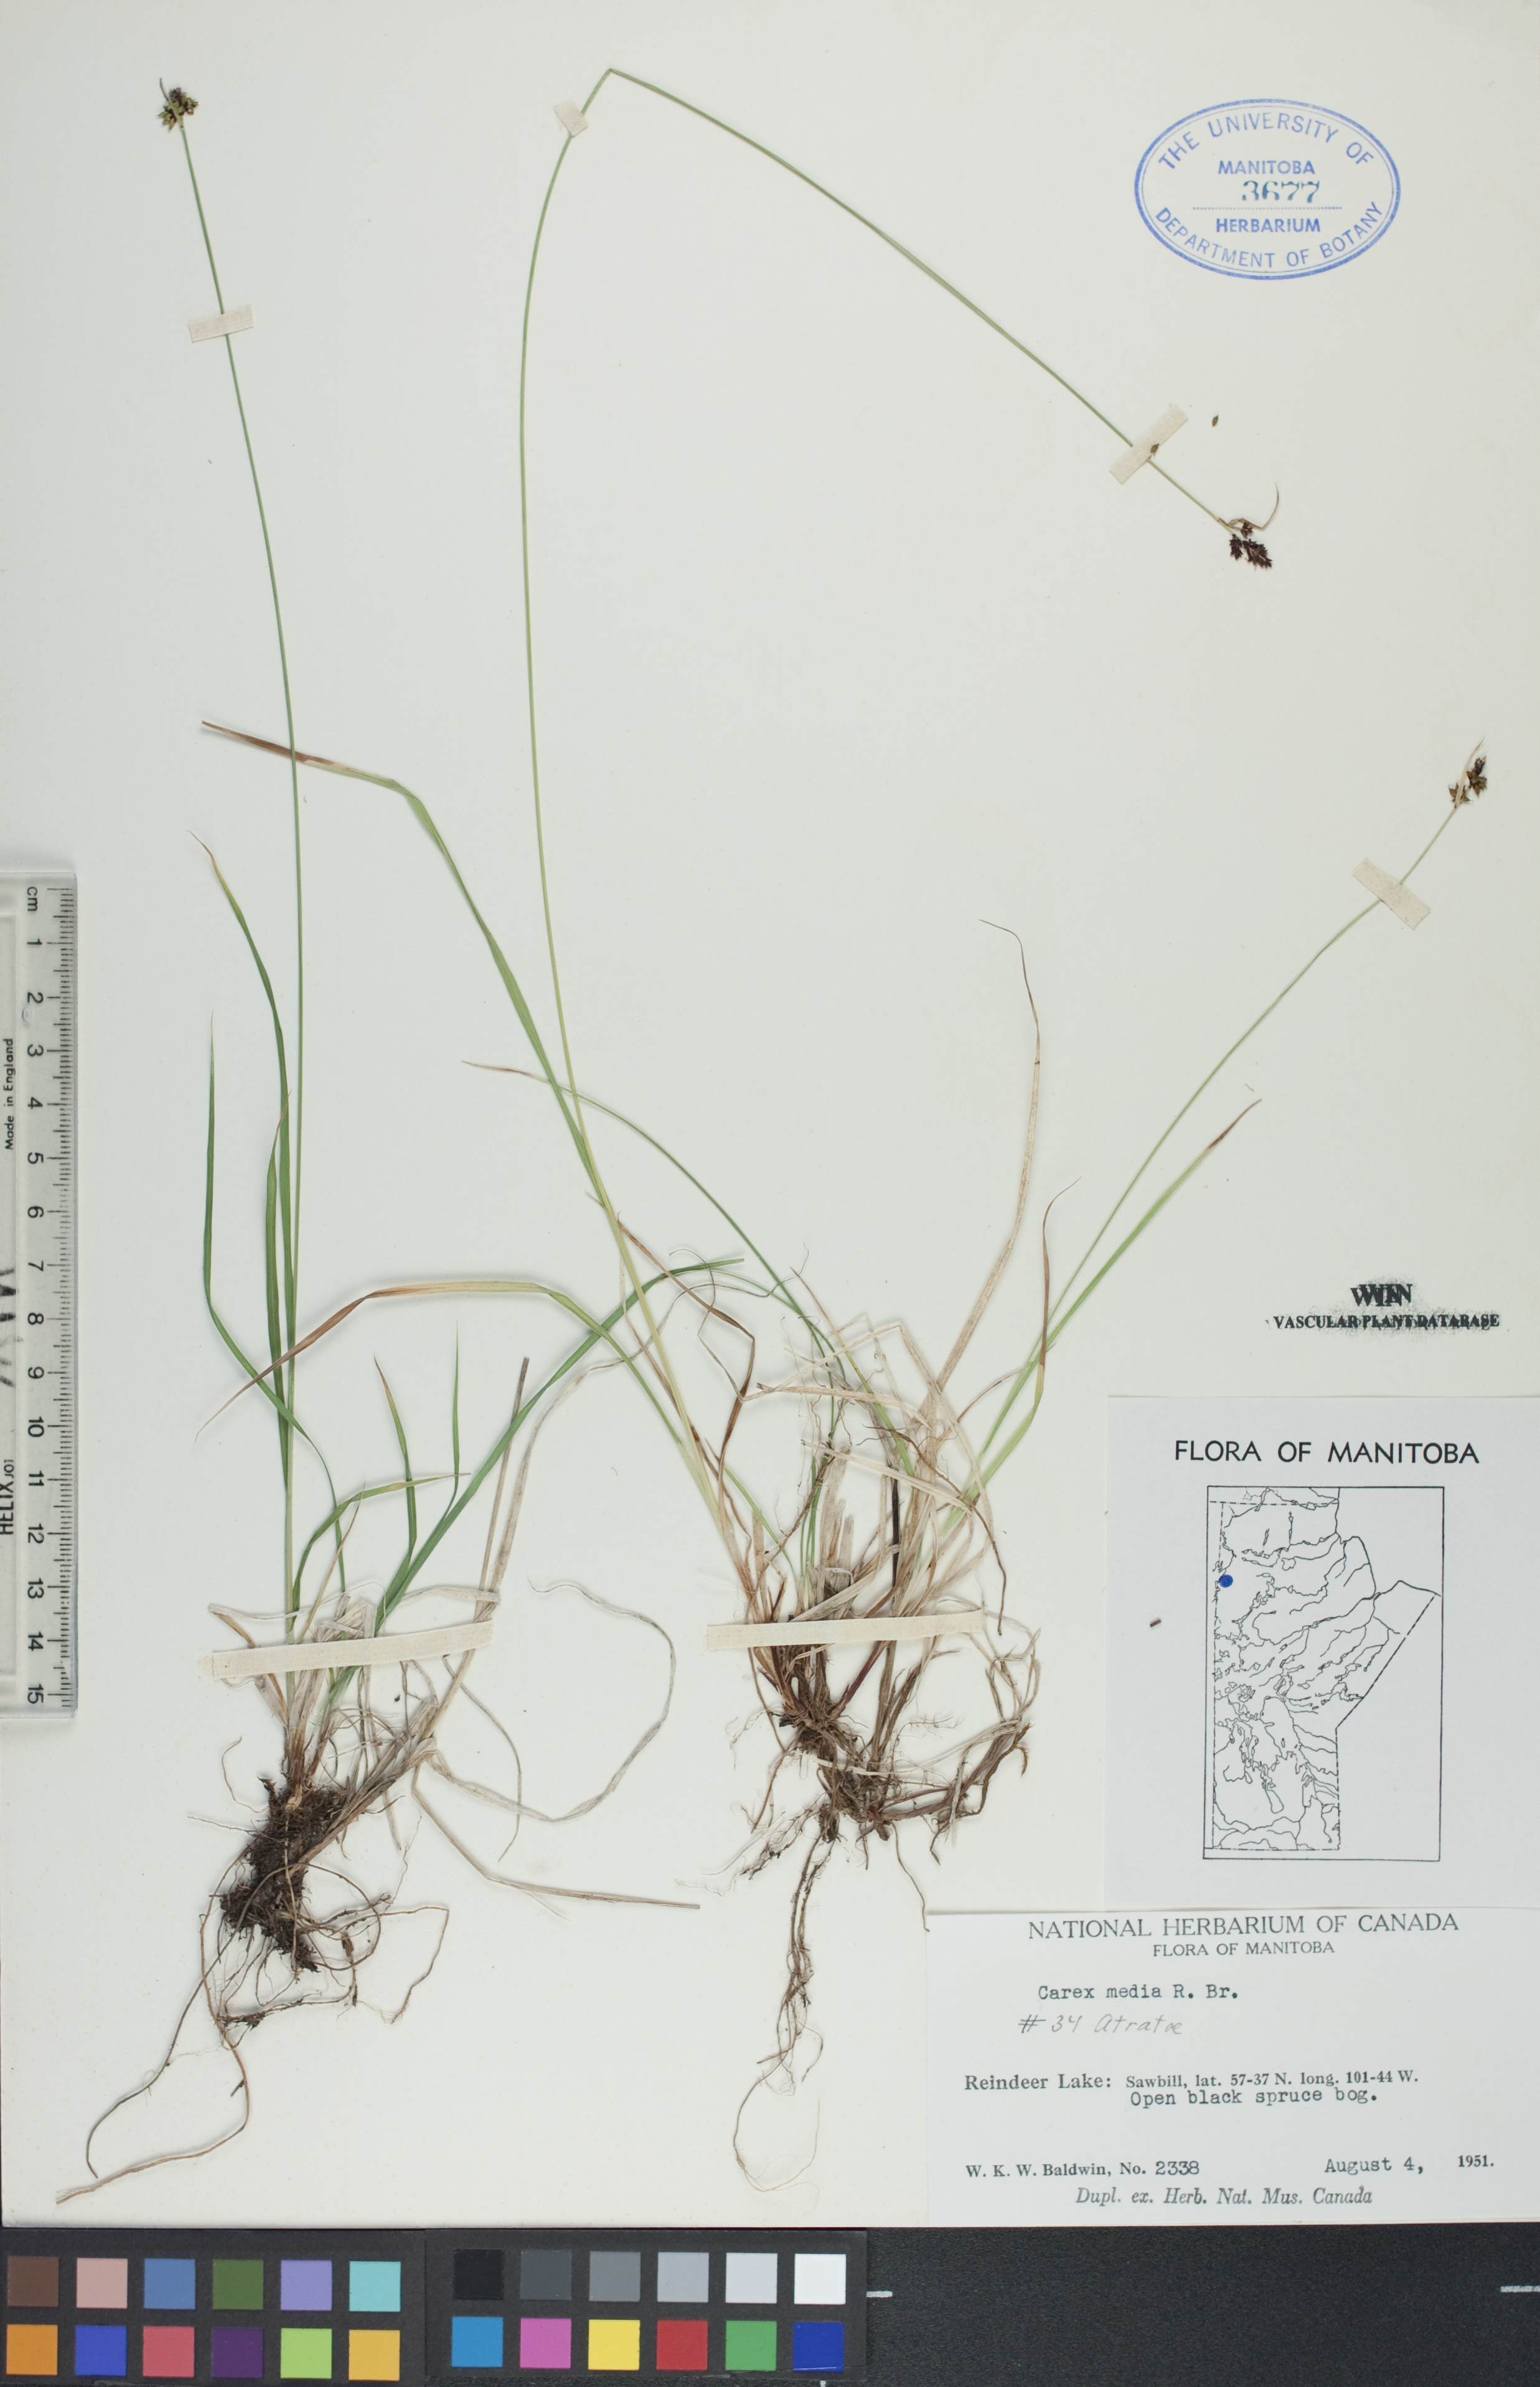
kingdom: Plantae
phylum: Tracheophyta
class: Liliopsida
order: Poales
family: Cyperaceae
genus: Carex
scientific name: Carex media
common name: Alpine sedge
